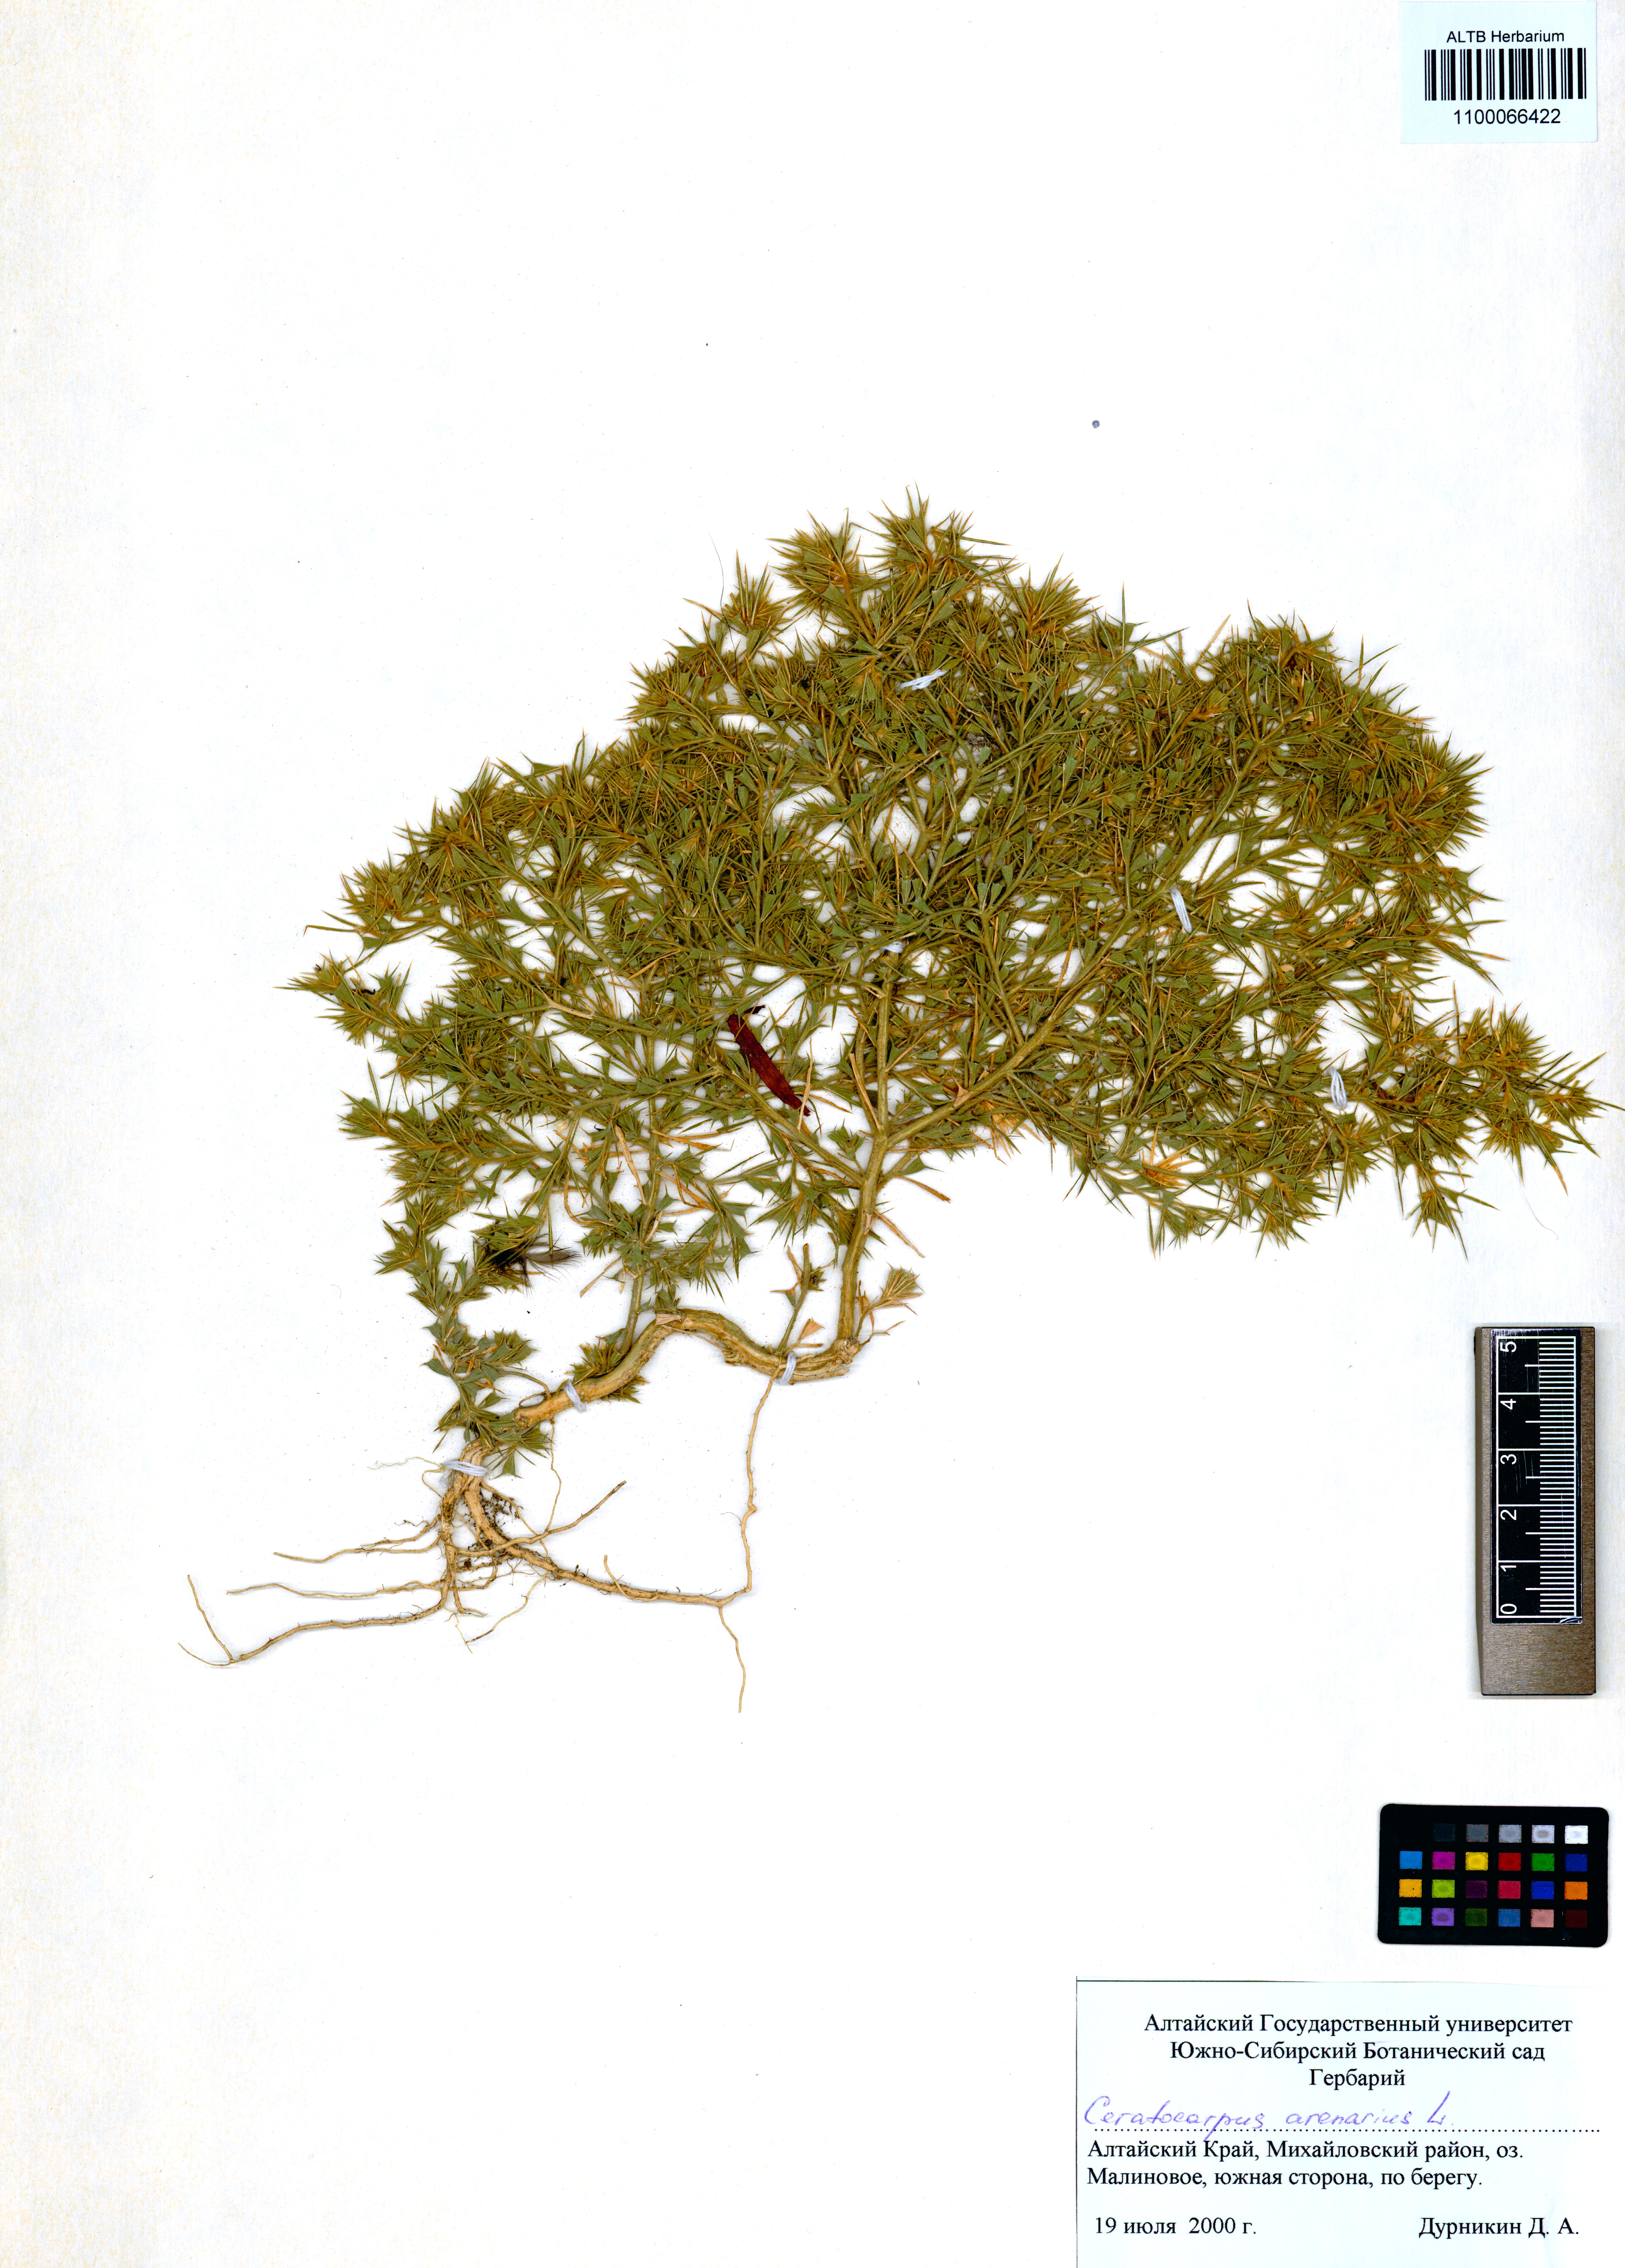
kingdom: Plantae
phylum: Tracheophyta
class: Magnoliopsida
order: Caryophyllales
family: Amaranthaceae
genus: Ceratocarpus
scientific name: Ceratocarpus arenarius
